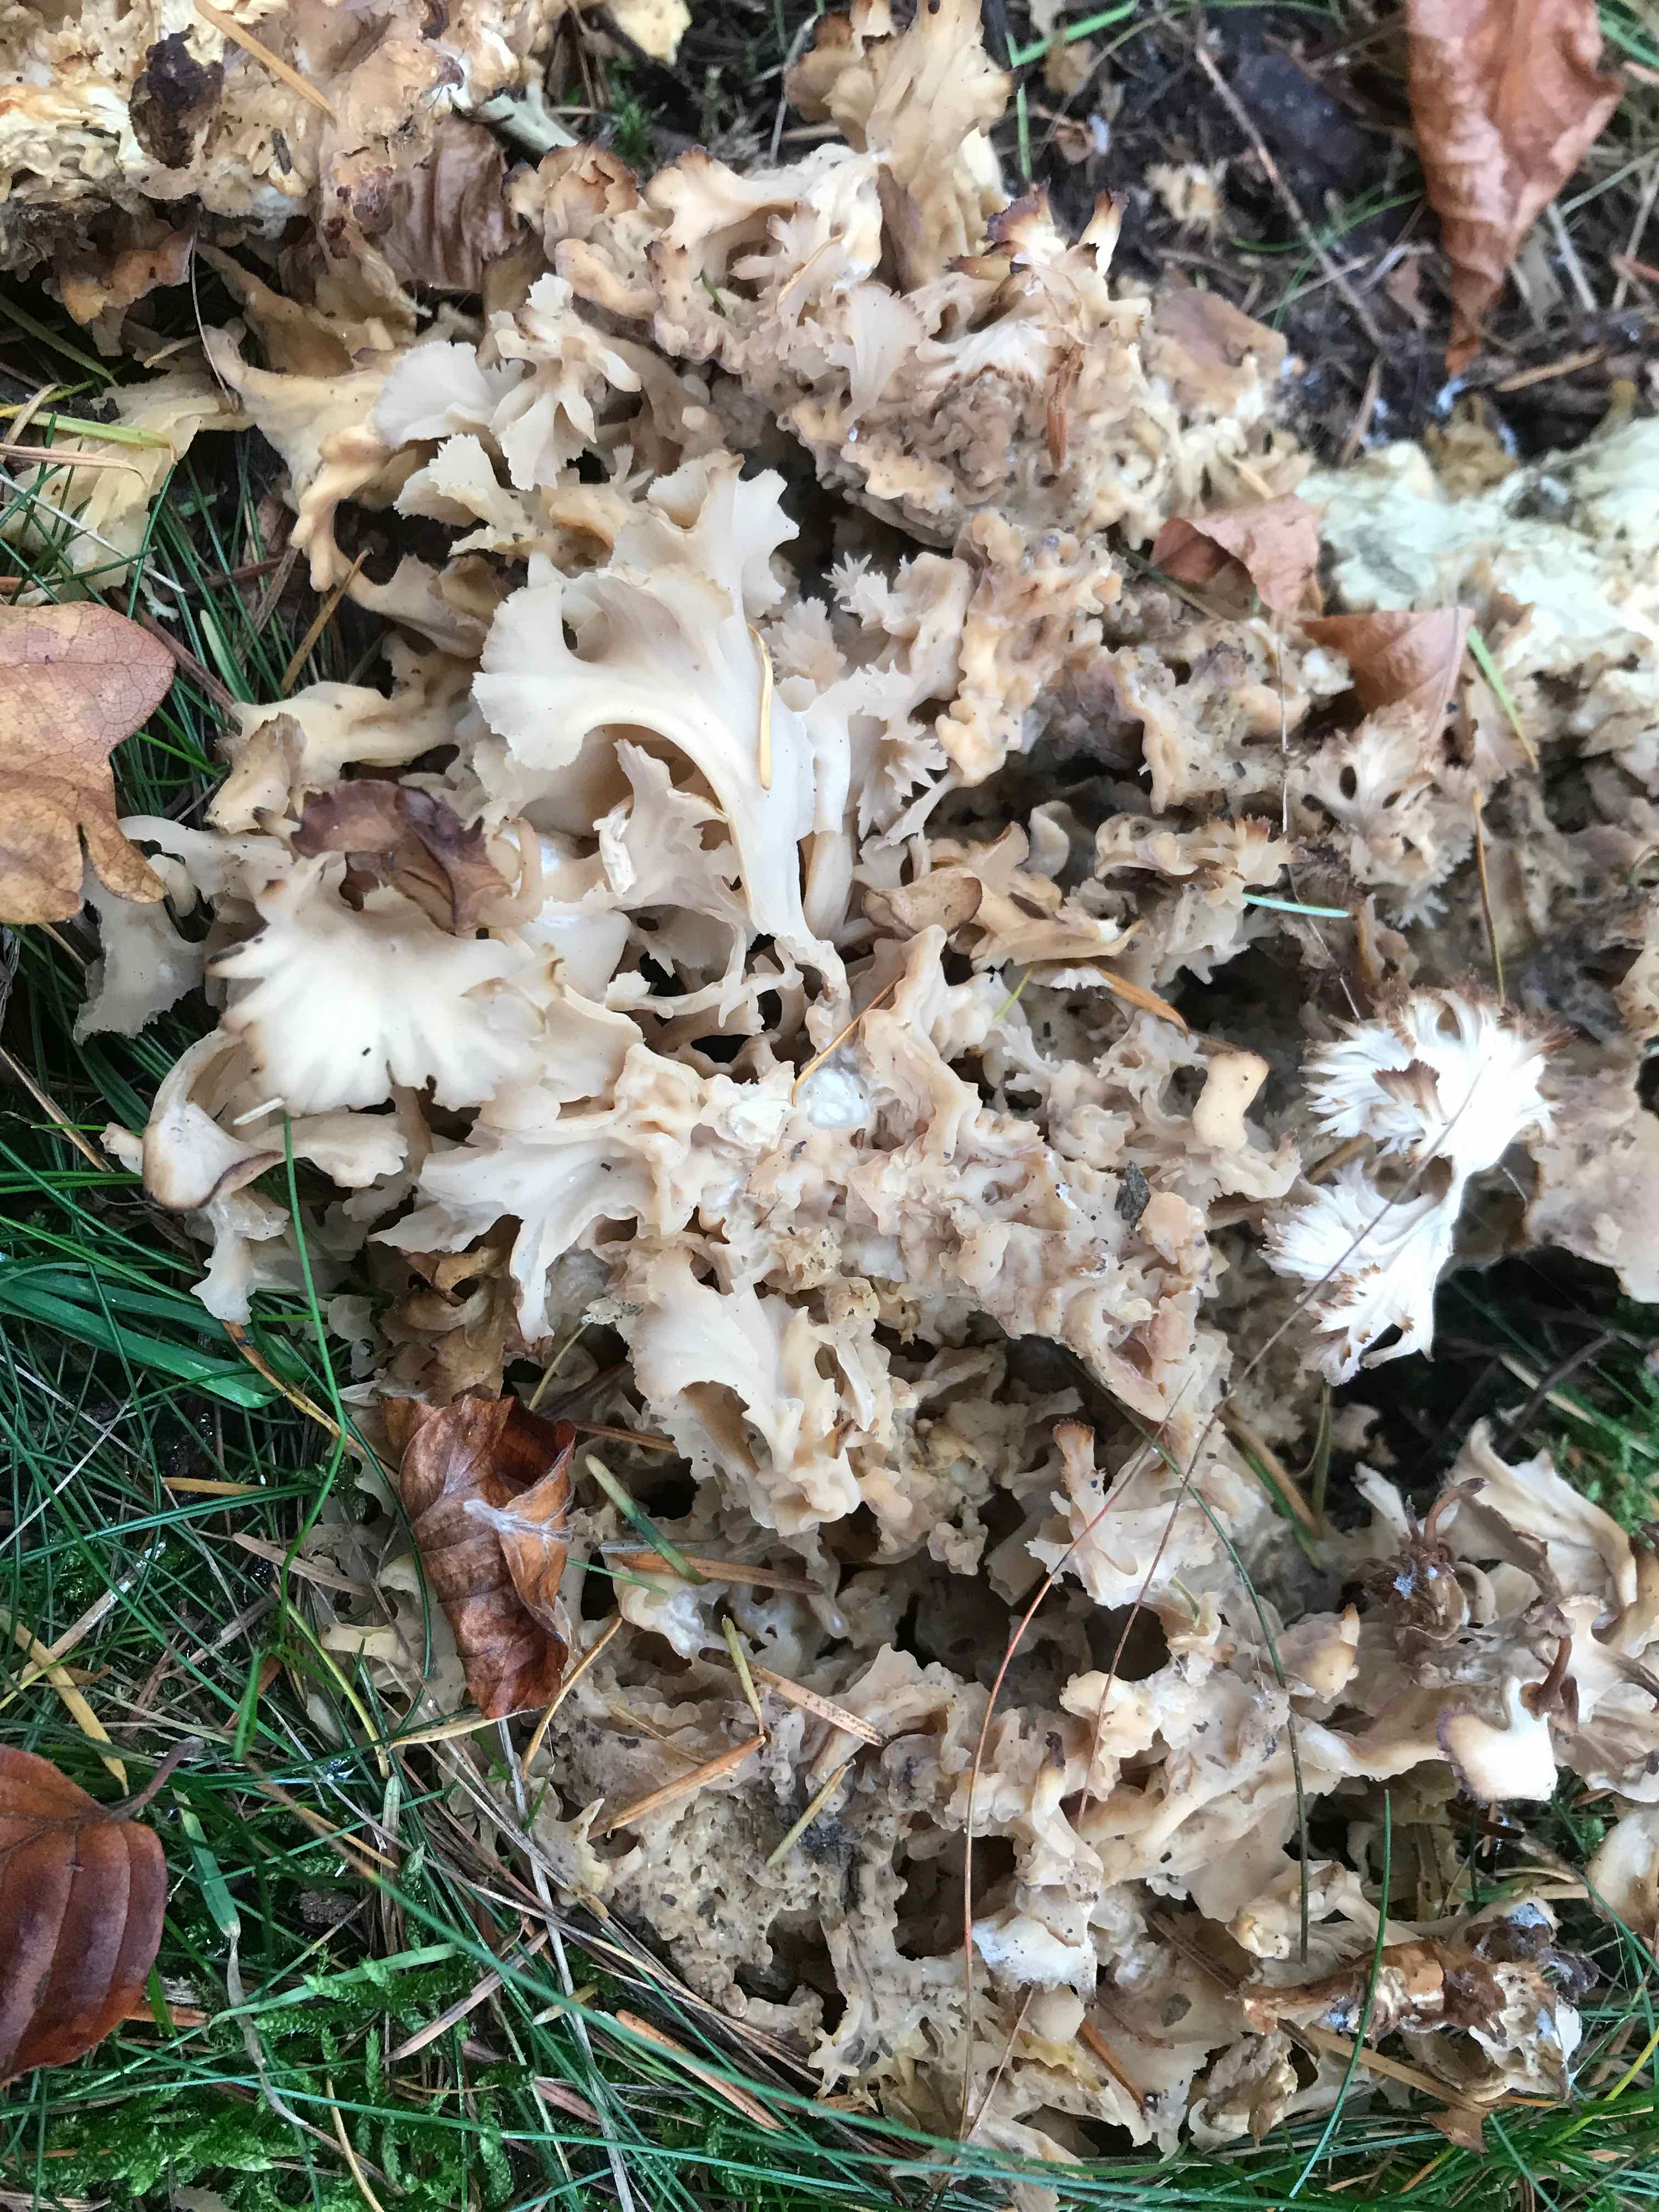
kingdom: Fungi
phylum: Basidiomycota
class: Agaricomycetes
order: Polyporales
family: Sparassidaceae
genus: Sparassis
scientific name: Sparassis crispa
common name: kruset blomkålssvamp
